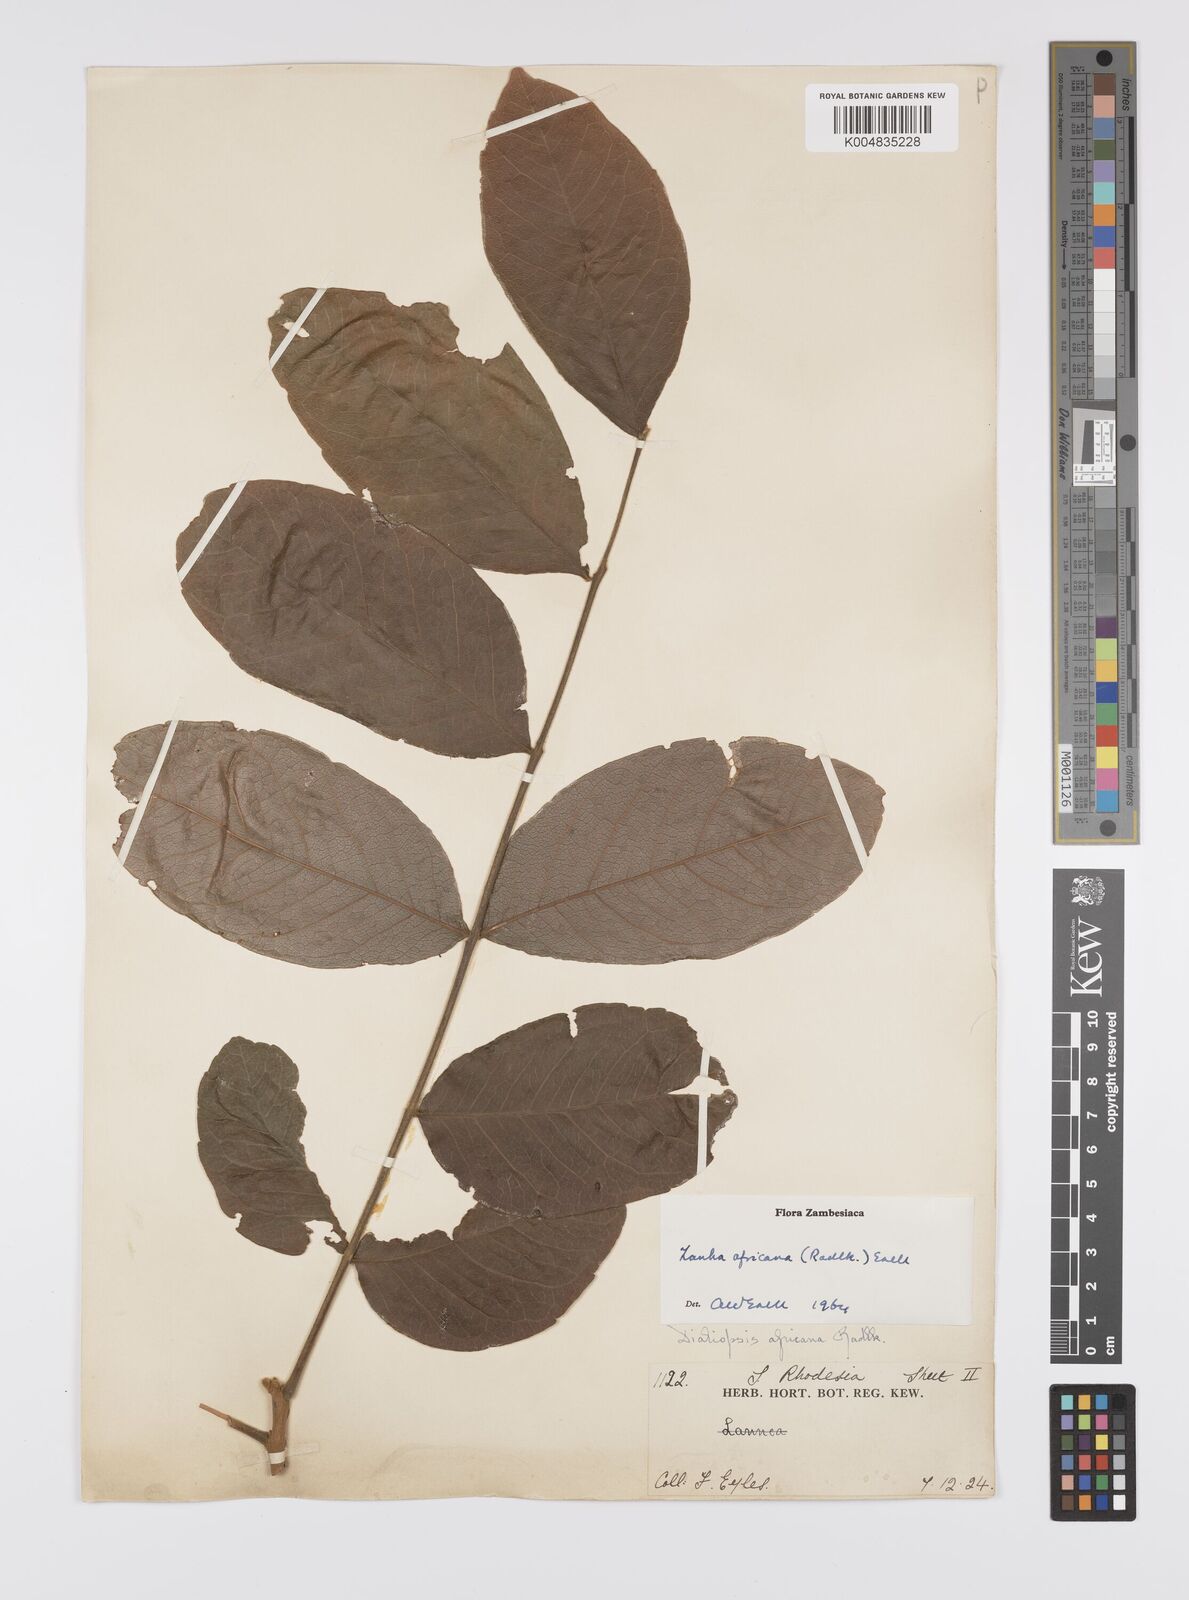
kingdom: Plantae
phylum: Tracheophyta
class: Magnoliopsida
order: Sapindales
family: Sapindaceae
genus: Zanha
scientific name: Zanha africana
